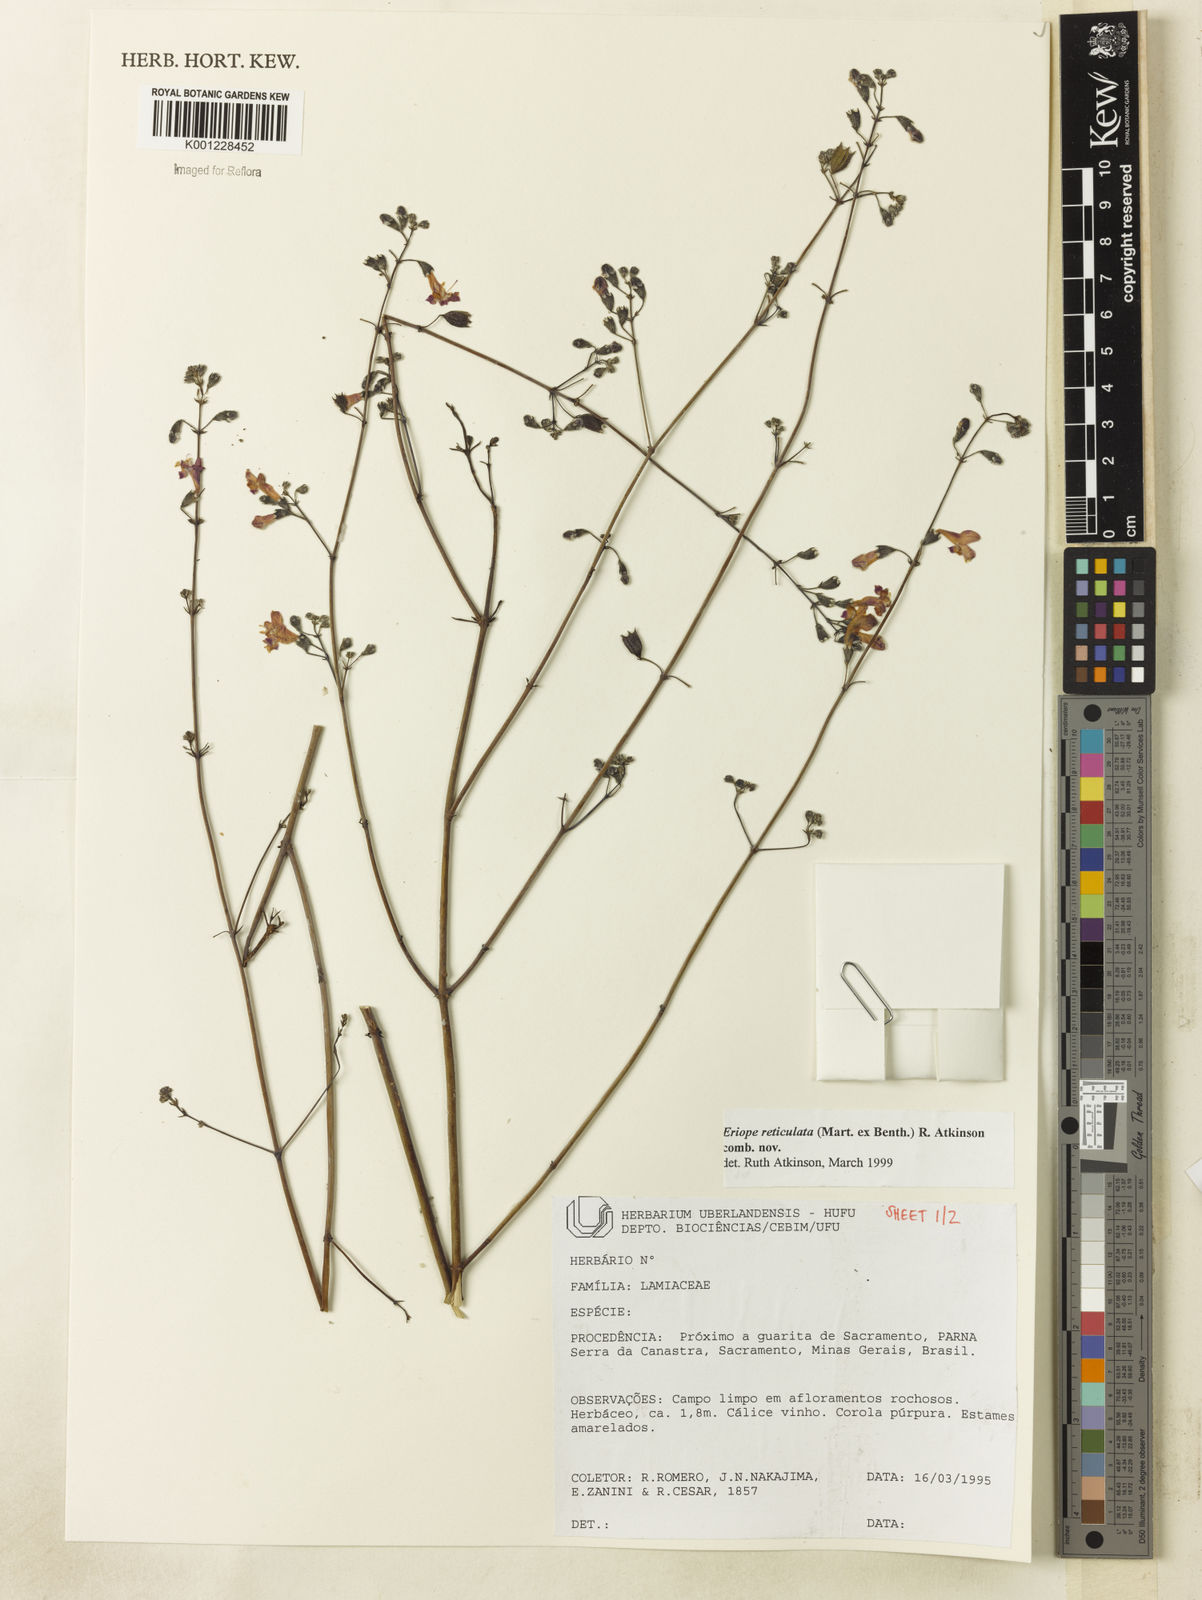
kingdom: Plantae
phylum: Tracheophyta
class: Magnoliopsida
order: Lamiales
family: Lamiaceae
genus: Hypenia
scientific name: Hypenia reticulata
